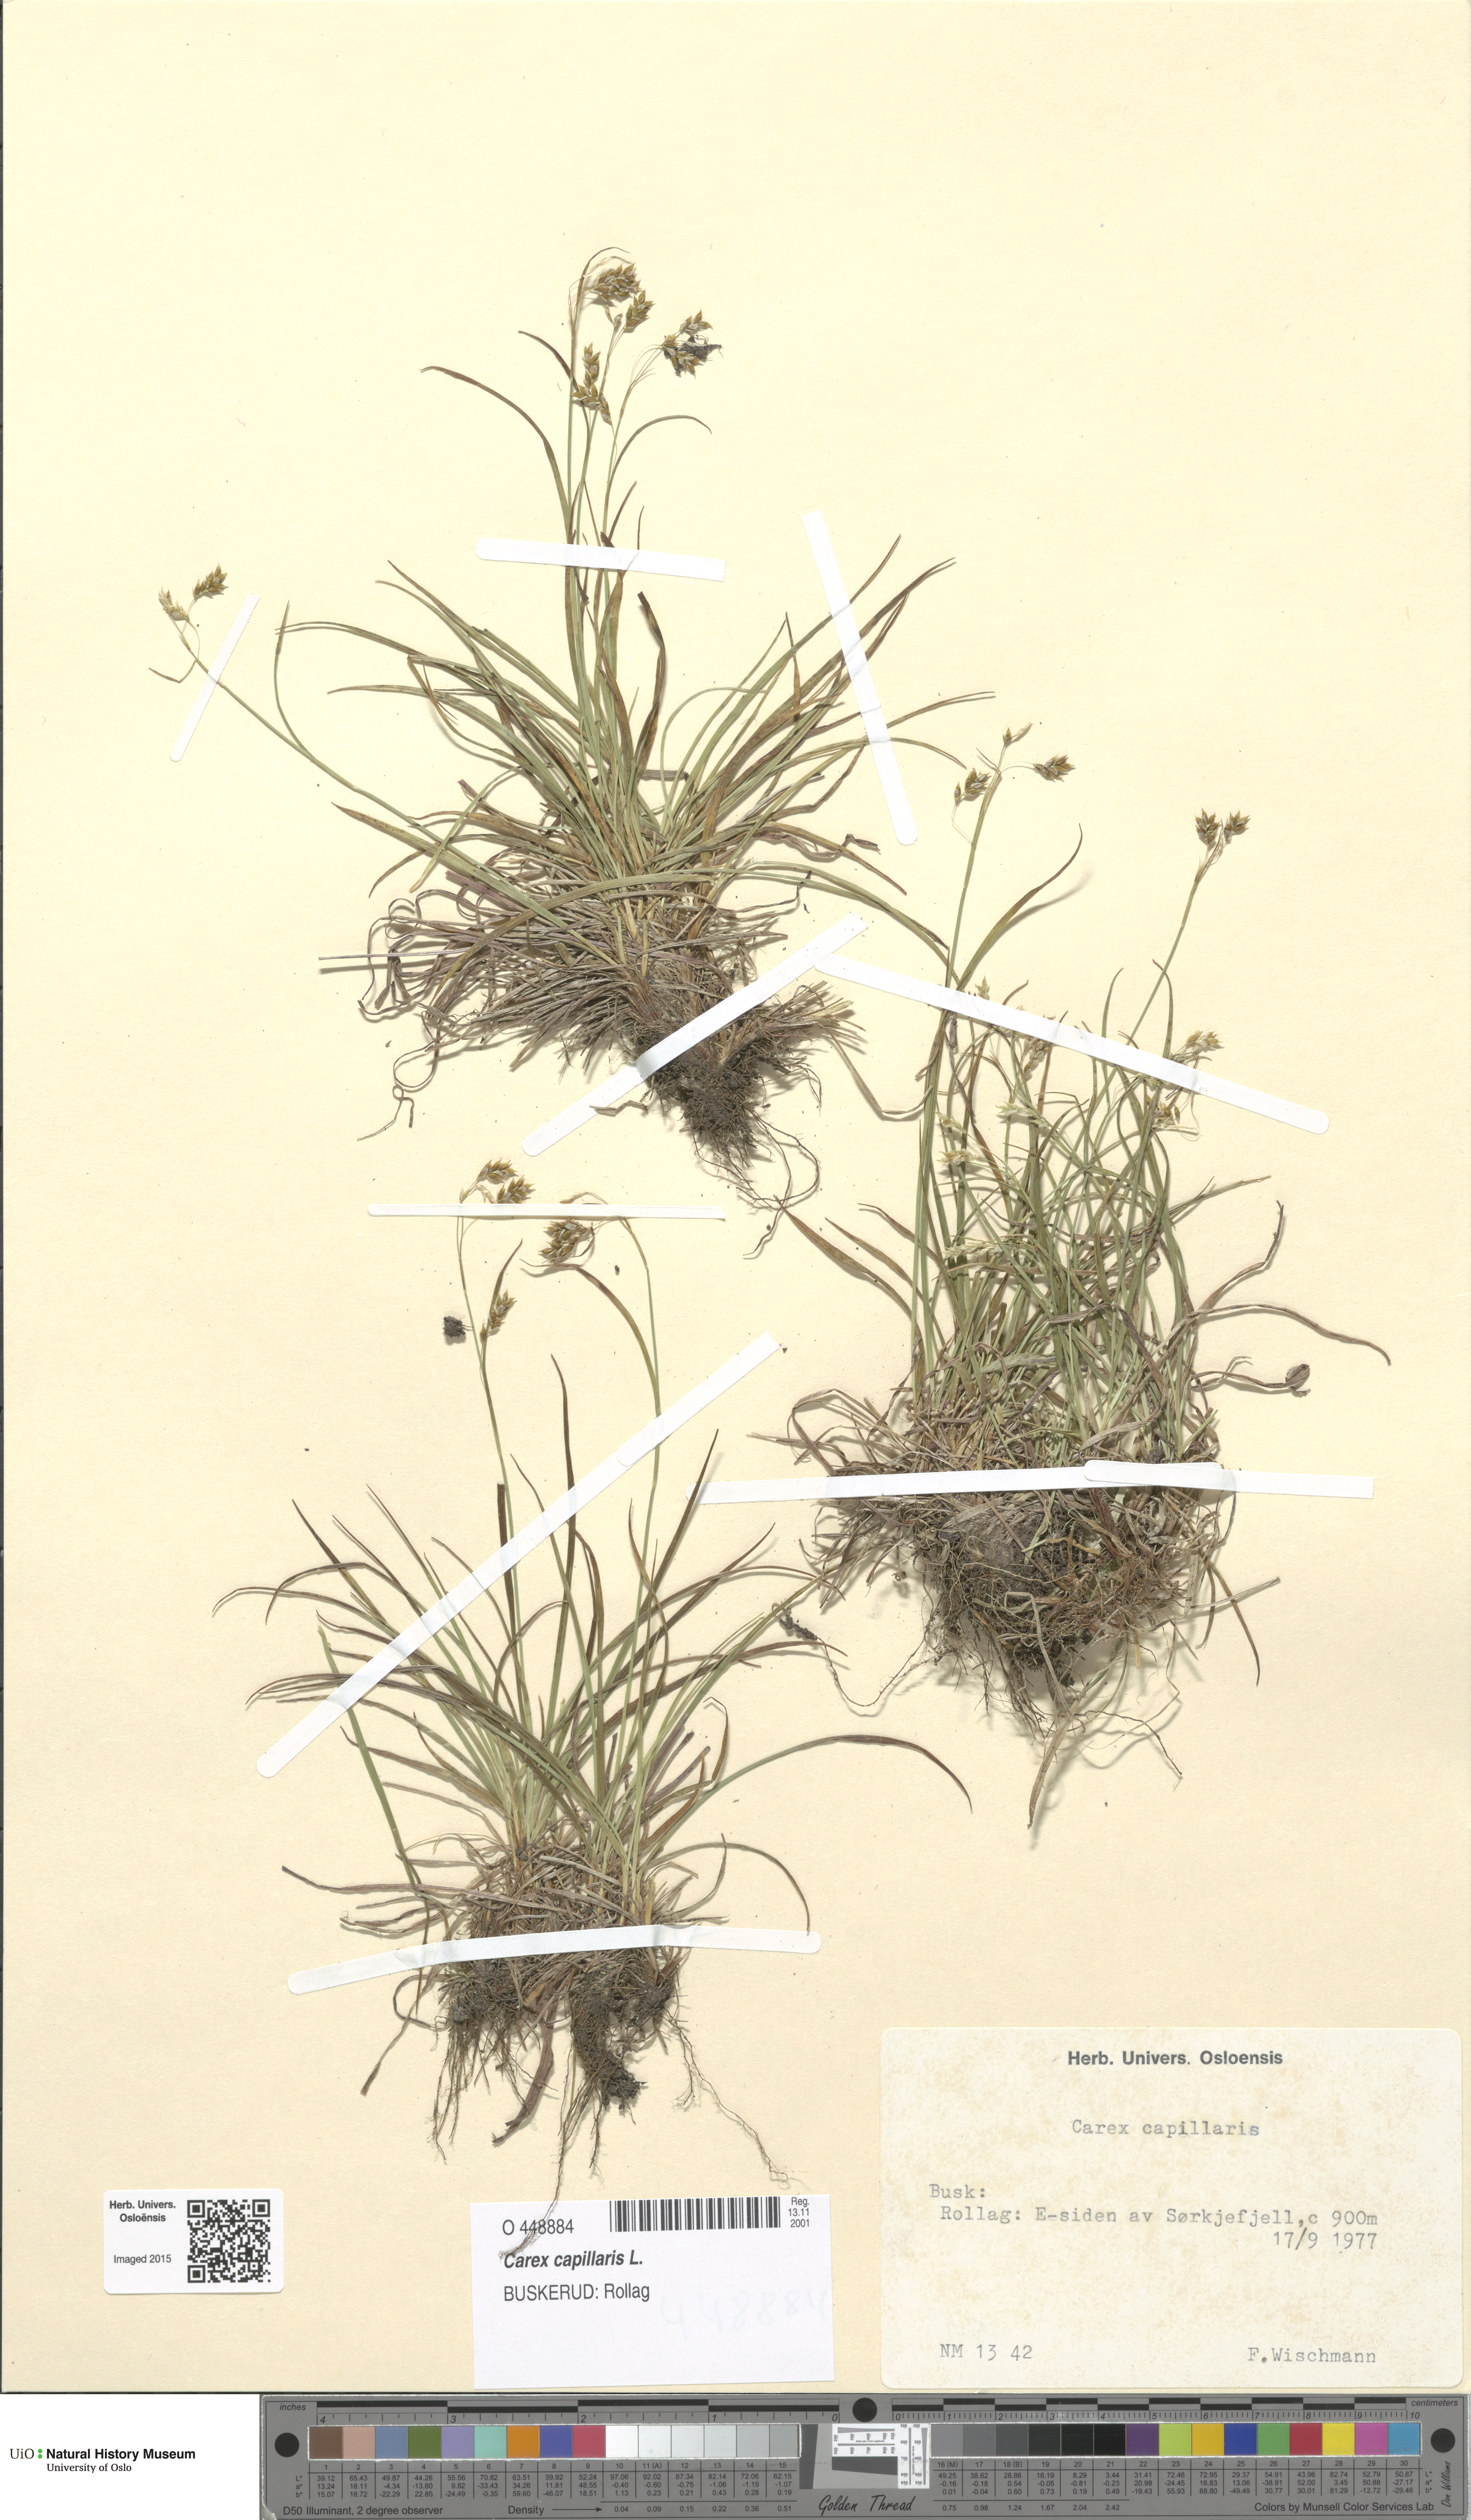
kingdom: Plantae
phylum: Tracheophyta
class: Liliopsida
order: Poales
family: Cyperaceae
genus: Carex
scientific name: Carex capillaris
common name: Hair sedge
